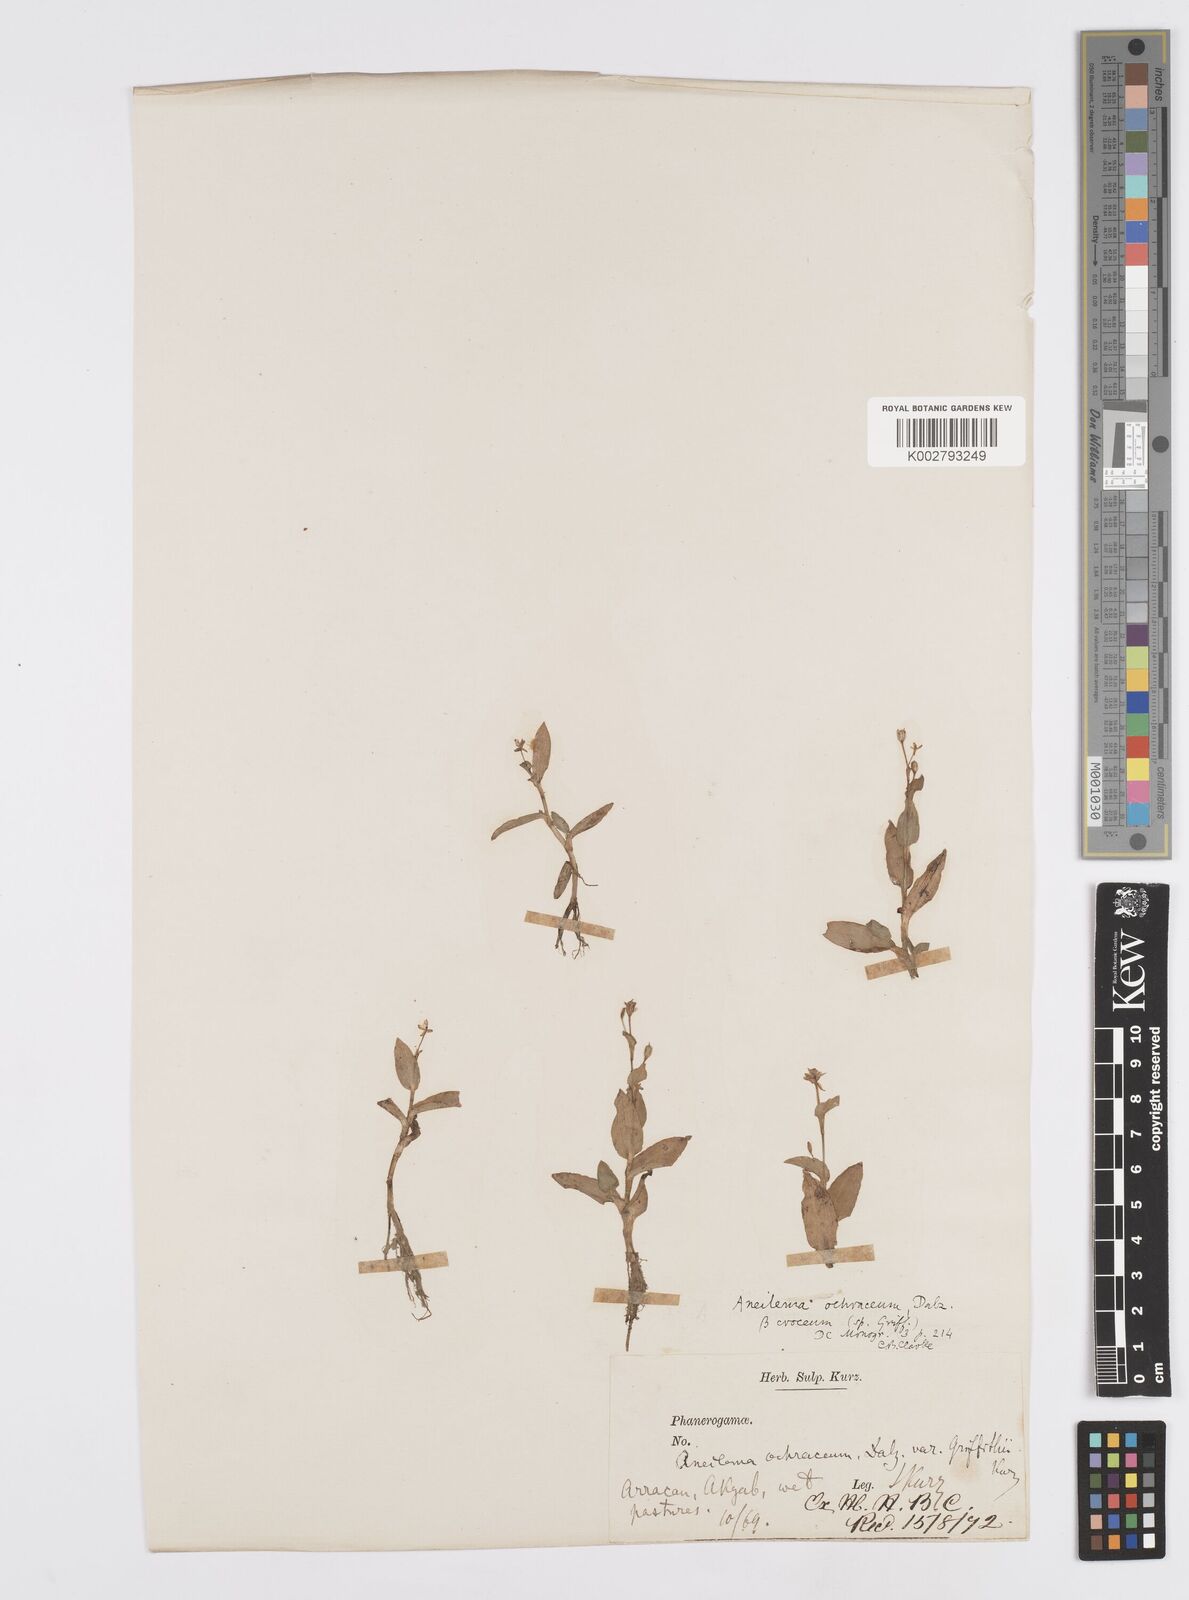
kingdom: Plantae
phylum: Tracheophyta
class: Liliopsida
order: Commelinales
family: Commelinaceae
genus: Murdannia
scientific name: Murdannia crocea
